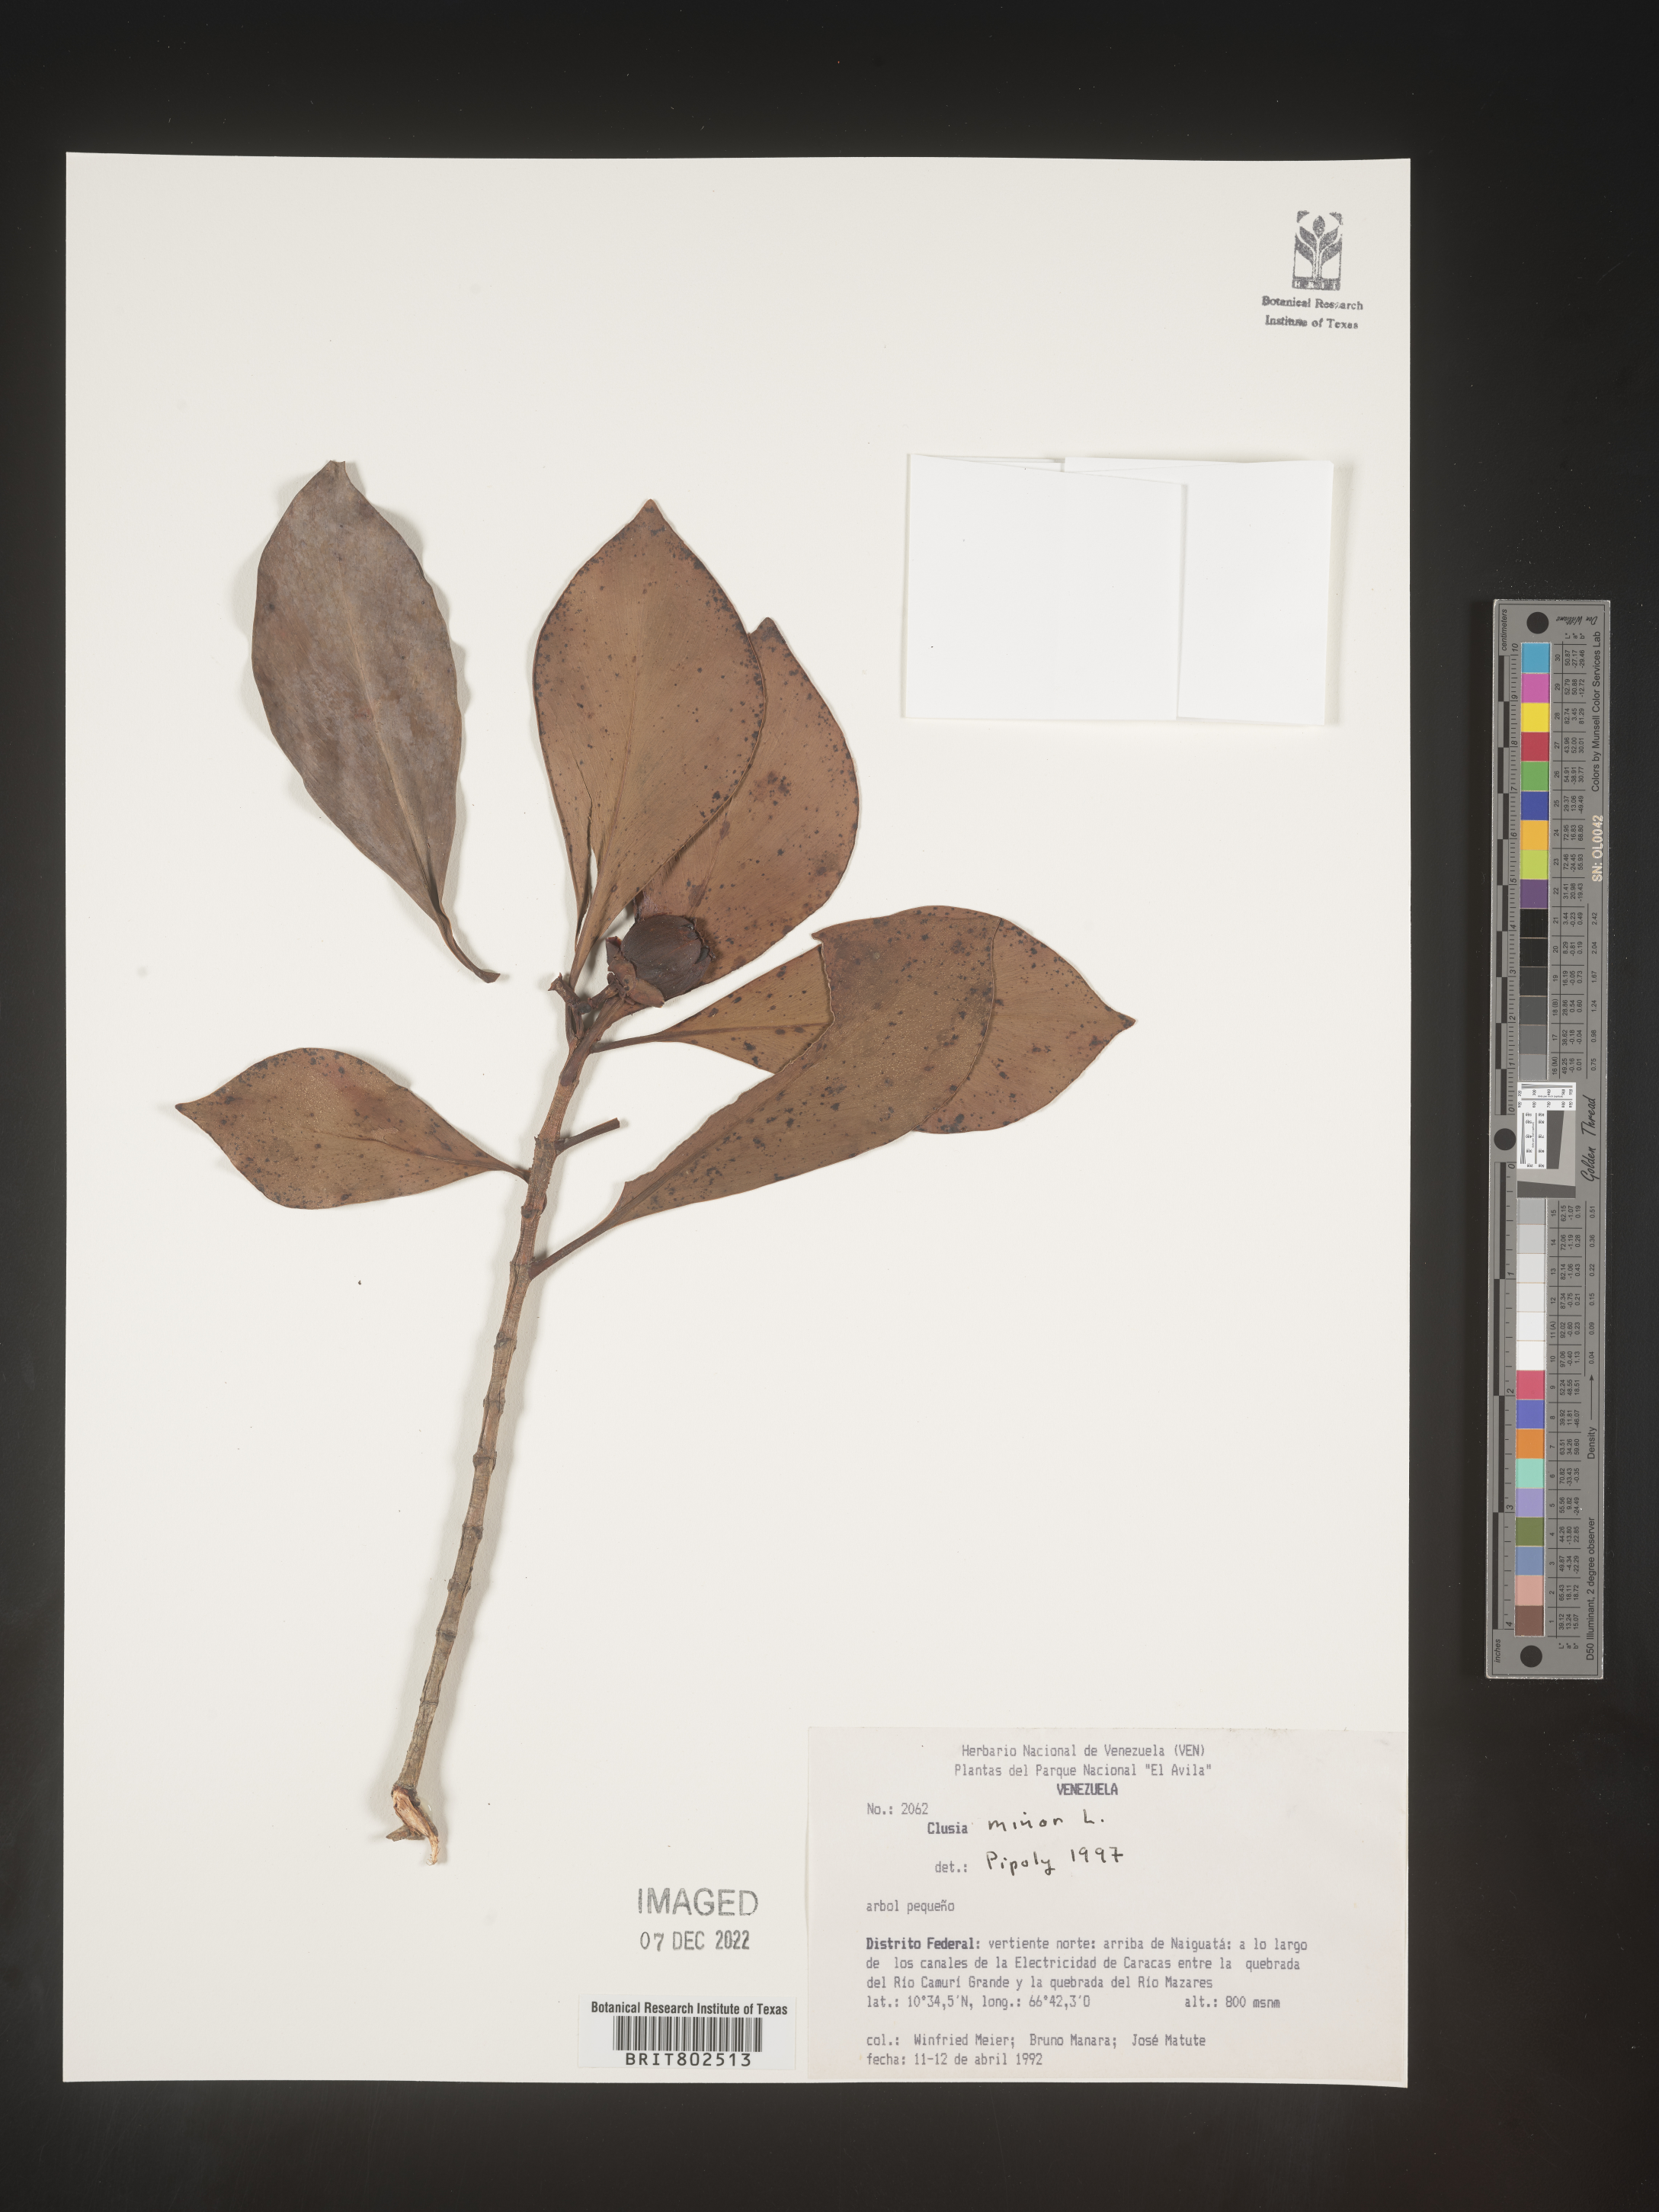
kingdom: Plantae
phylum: Tracheophyta
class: Magnoliopsida
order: Malpighiales
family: Clusiaceae
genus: Clusia
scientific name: Clusia minor
